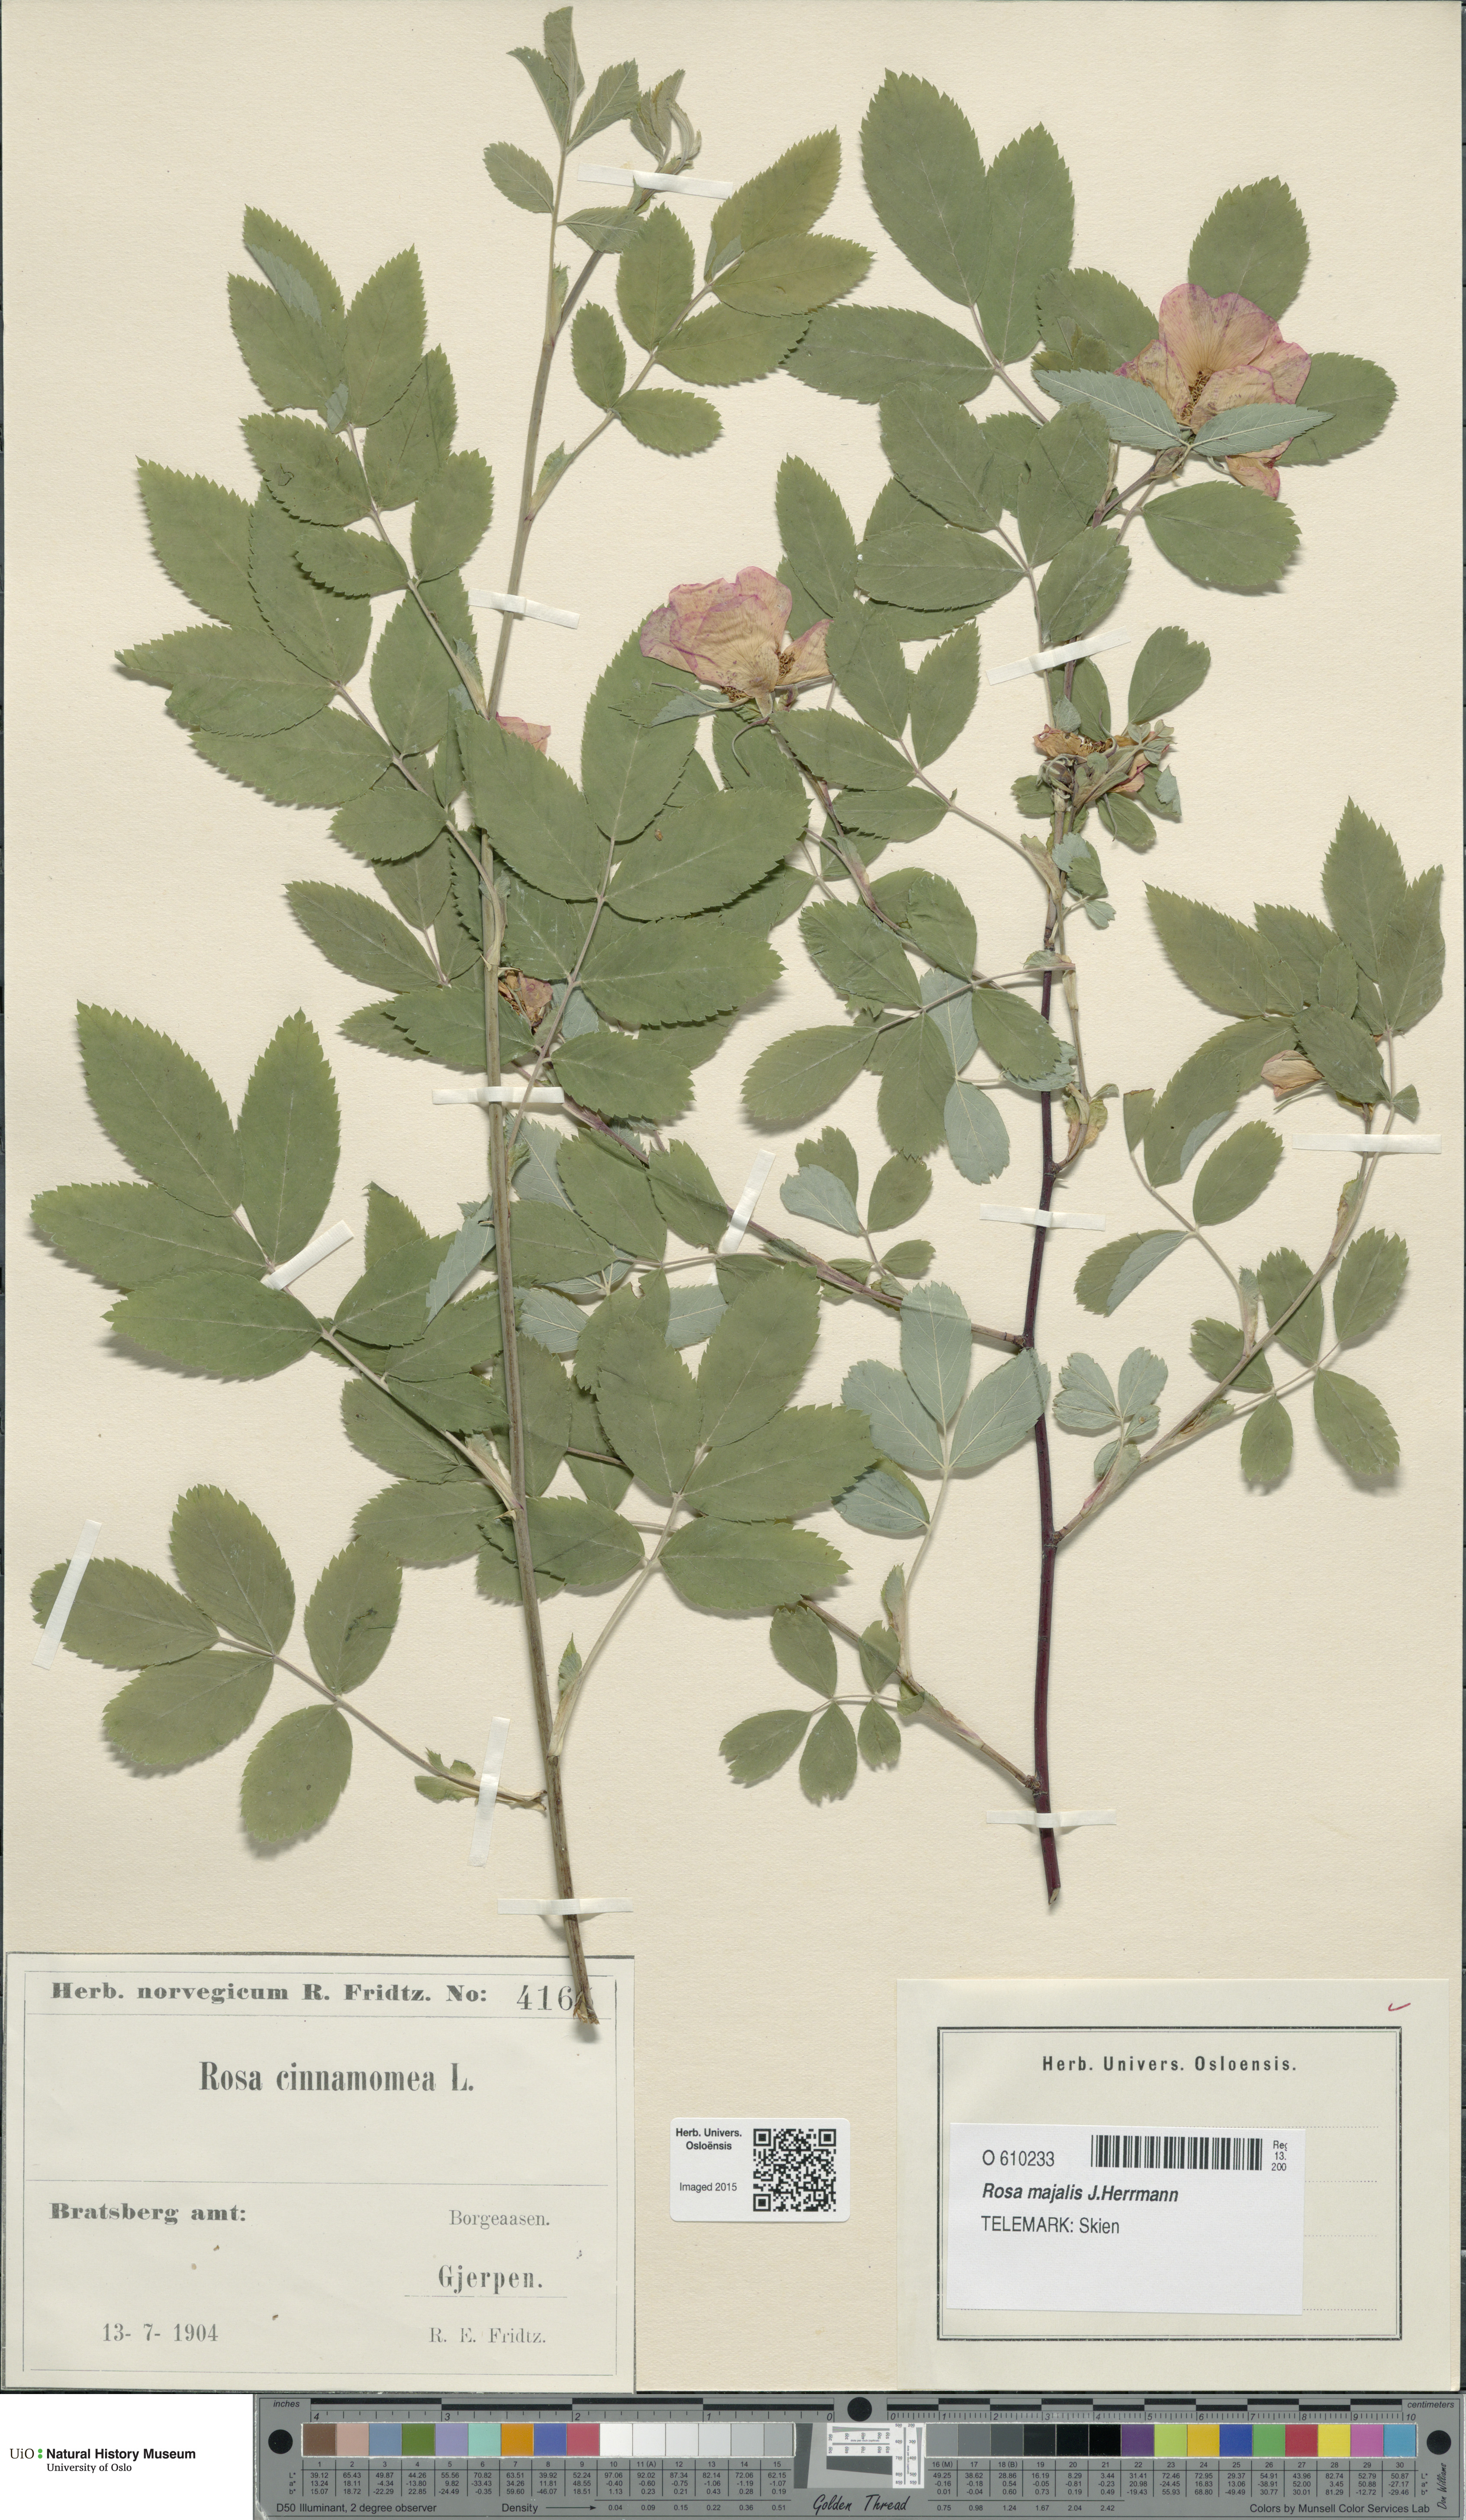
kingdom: Plantae
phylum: Tracheophyta
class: Magnoliopsida
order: Rosales
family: Rosaceae
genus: Rosa
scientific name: Rosa pendulina
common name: Alpine rose
